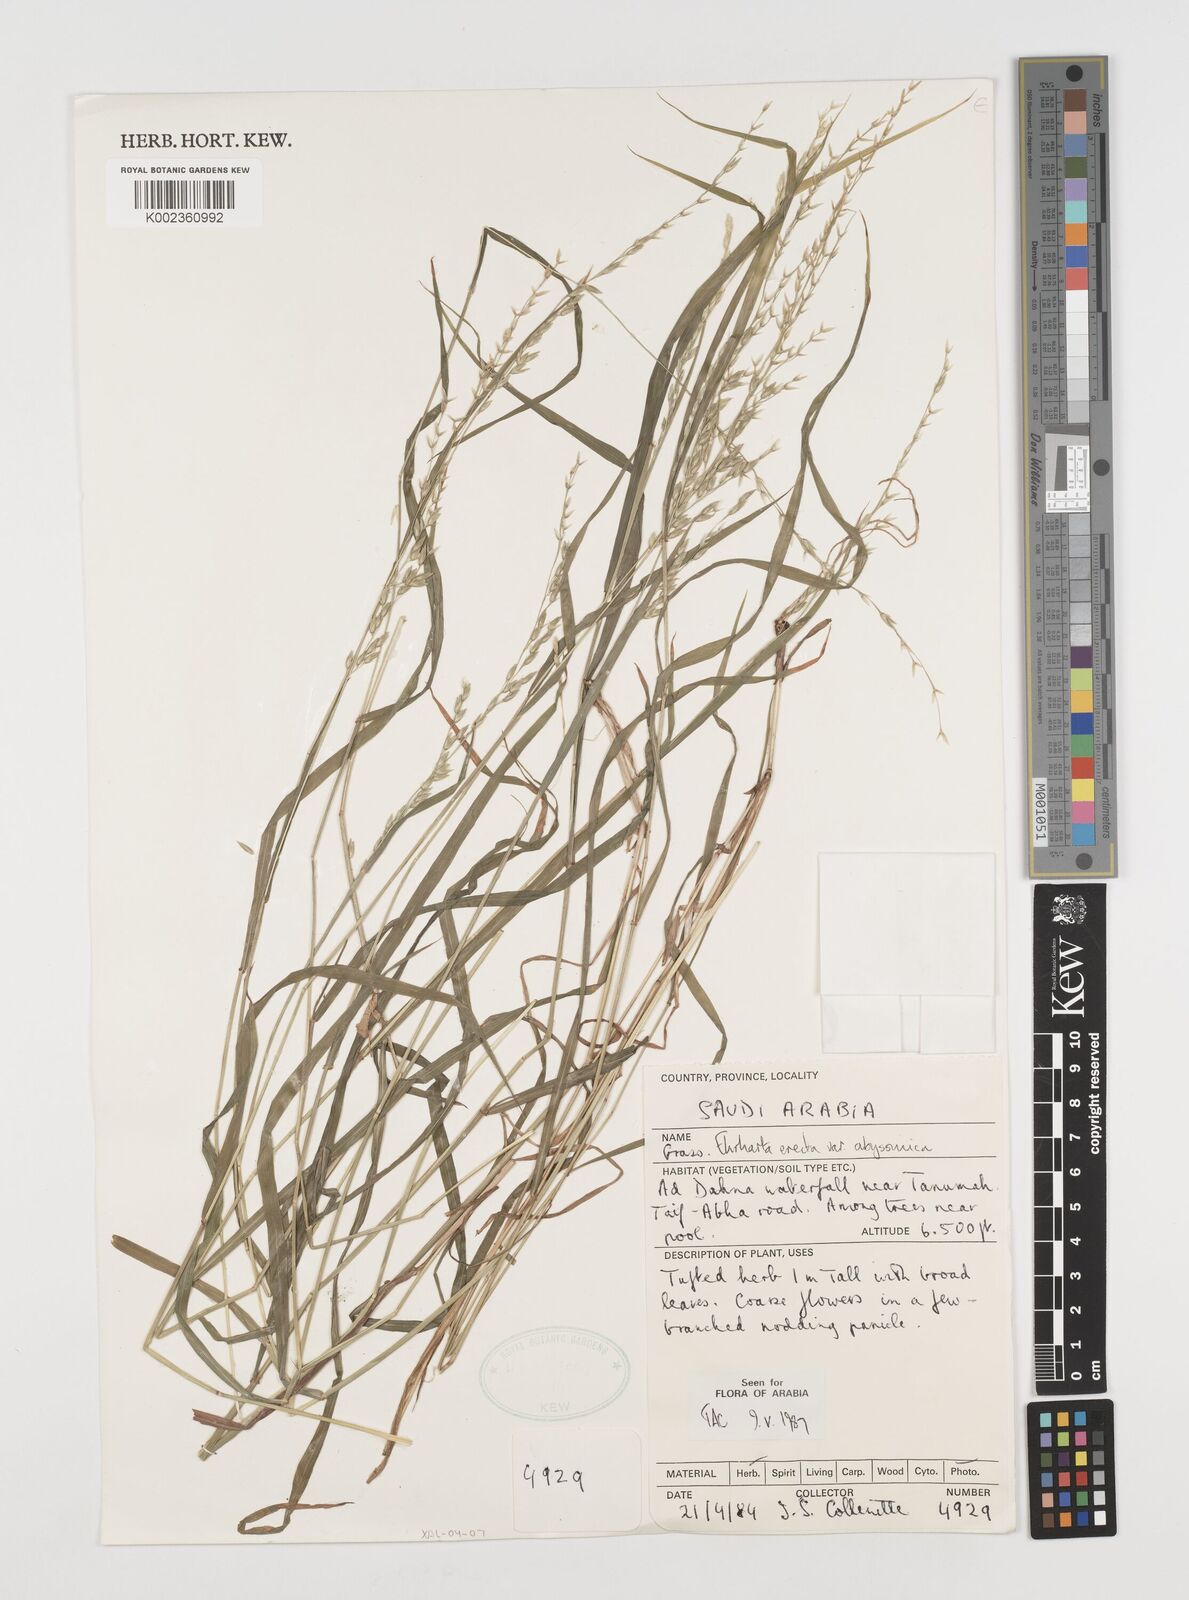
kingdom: Plantae
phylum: Tracheophyta
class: Liliopsida
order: Poales
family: Poaceae
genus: Ehrharta
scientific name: Ehrharta erecta
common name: Panic veldtgrass
